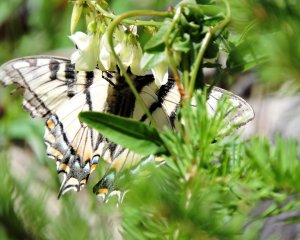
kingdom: Animalia
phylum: Arthropoda
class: Insecta
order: Lepidoptera
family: Papilionidae
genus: Pterourus
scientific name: Pterourus canadensis
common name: Canadian Tiger Swallowtail
